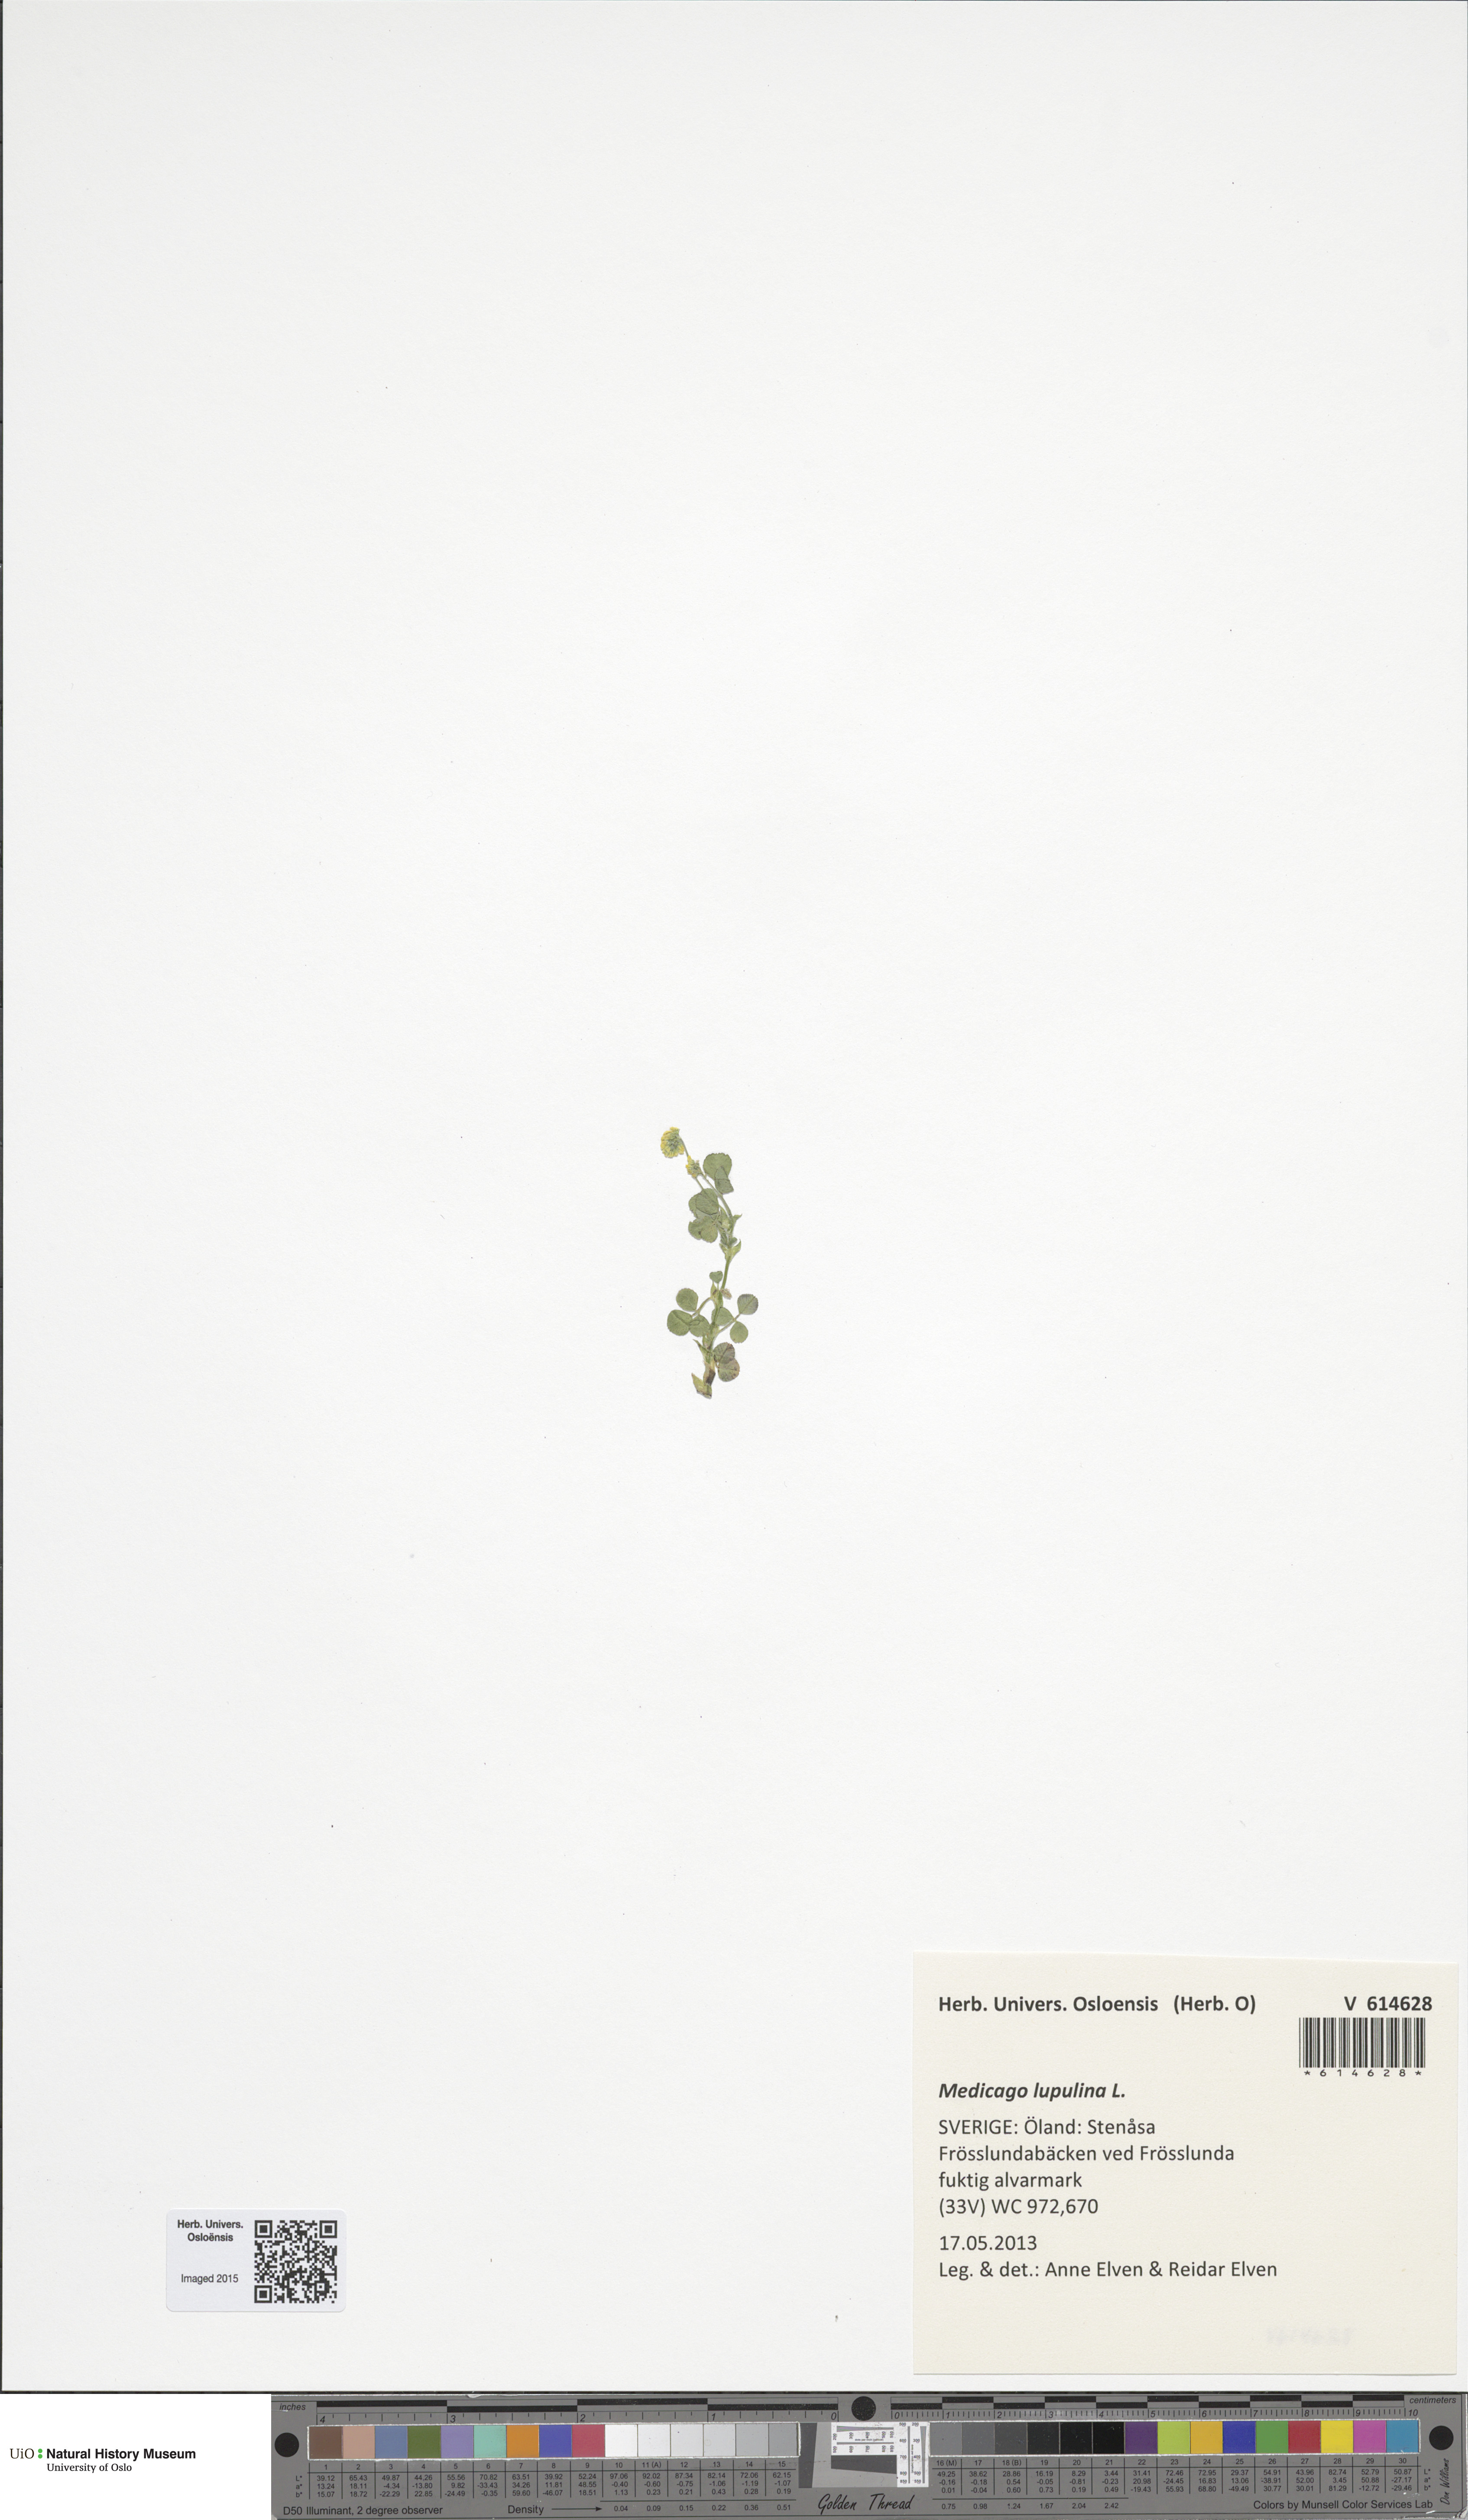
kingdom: Plantae
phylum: Tracheophyta
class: Magnoliopsida
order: Fabales
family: Fabaceae
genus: Medicago
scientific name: Medicago lupulina
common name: Black medick
